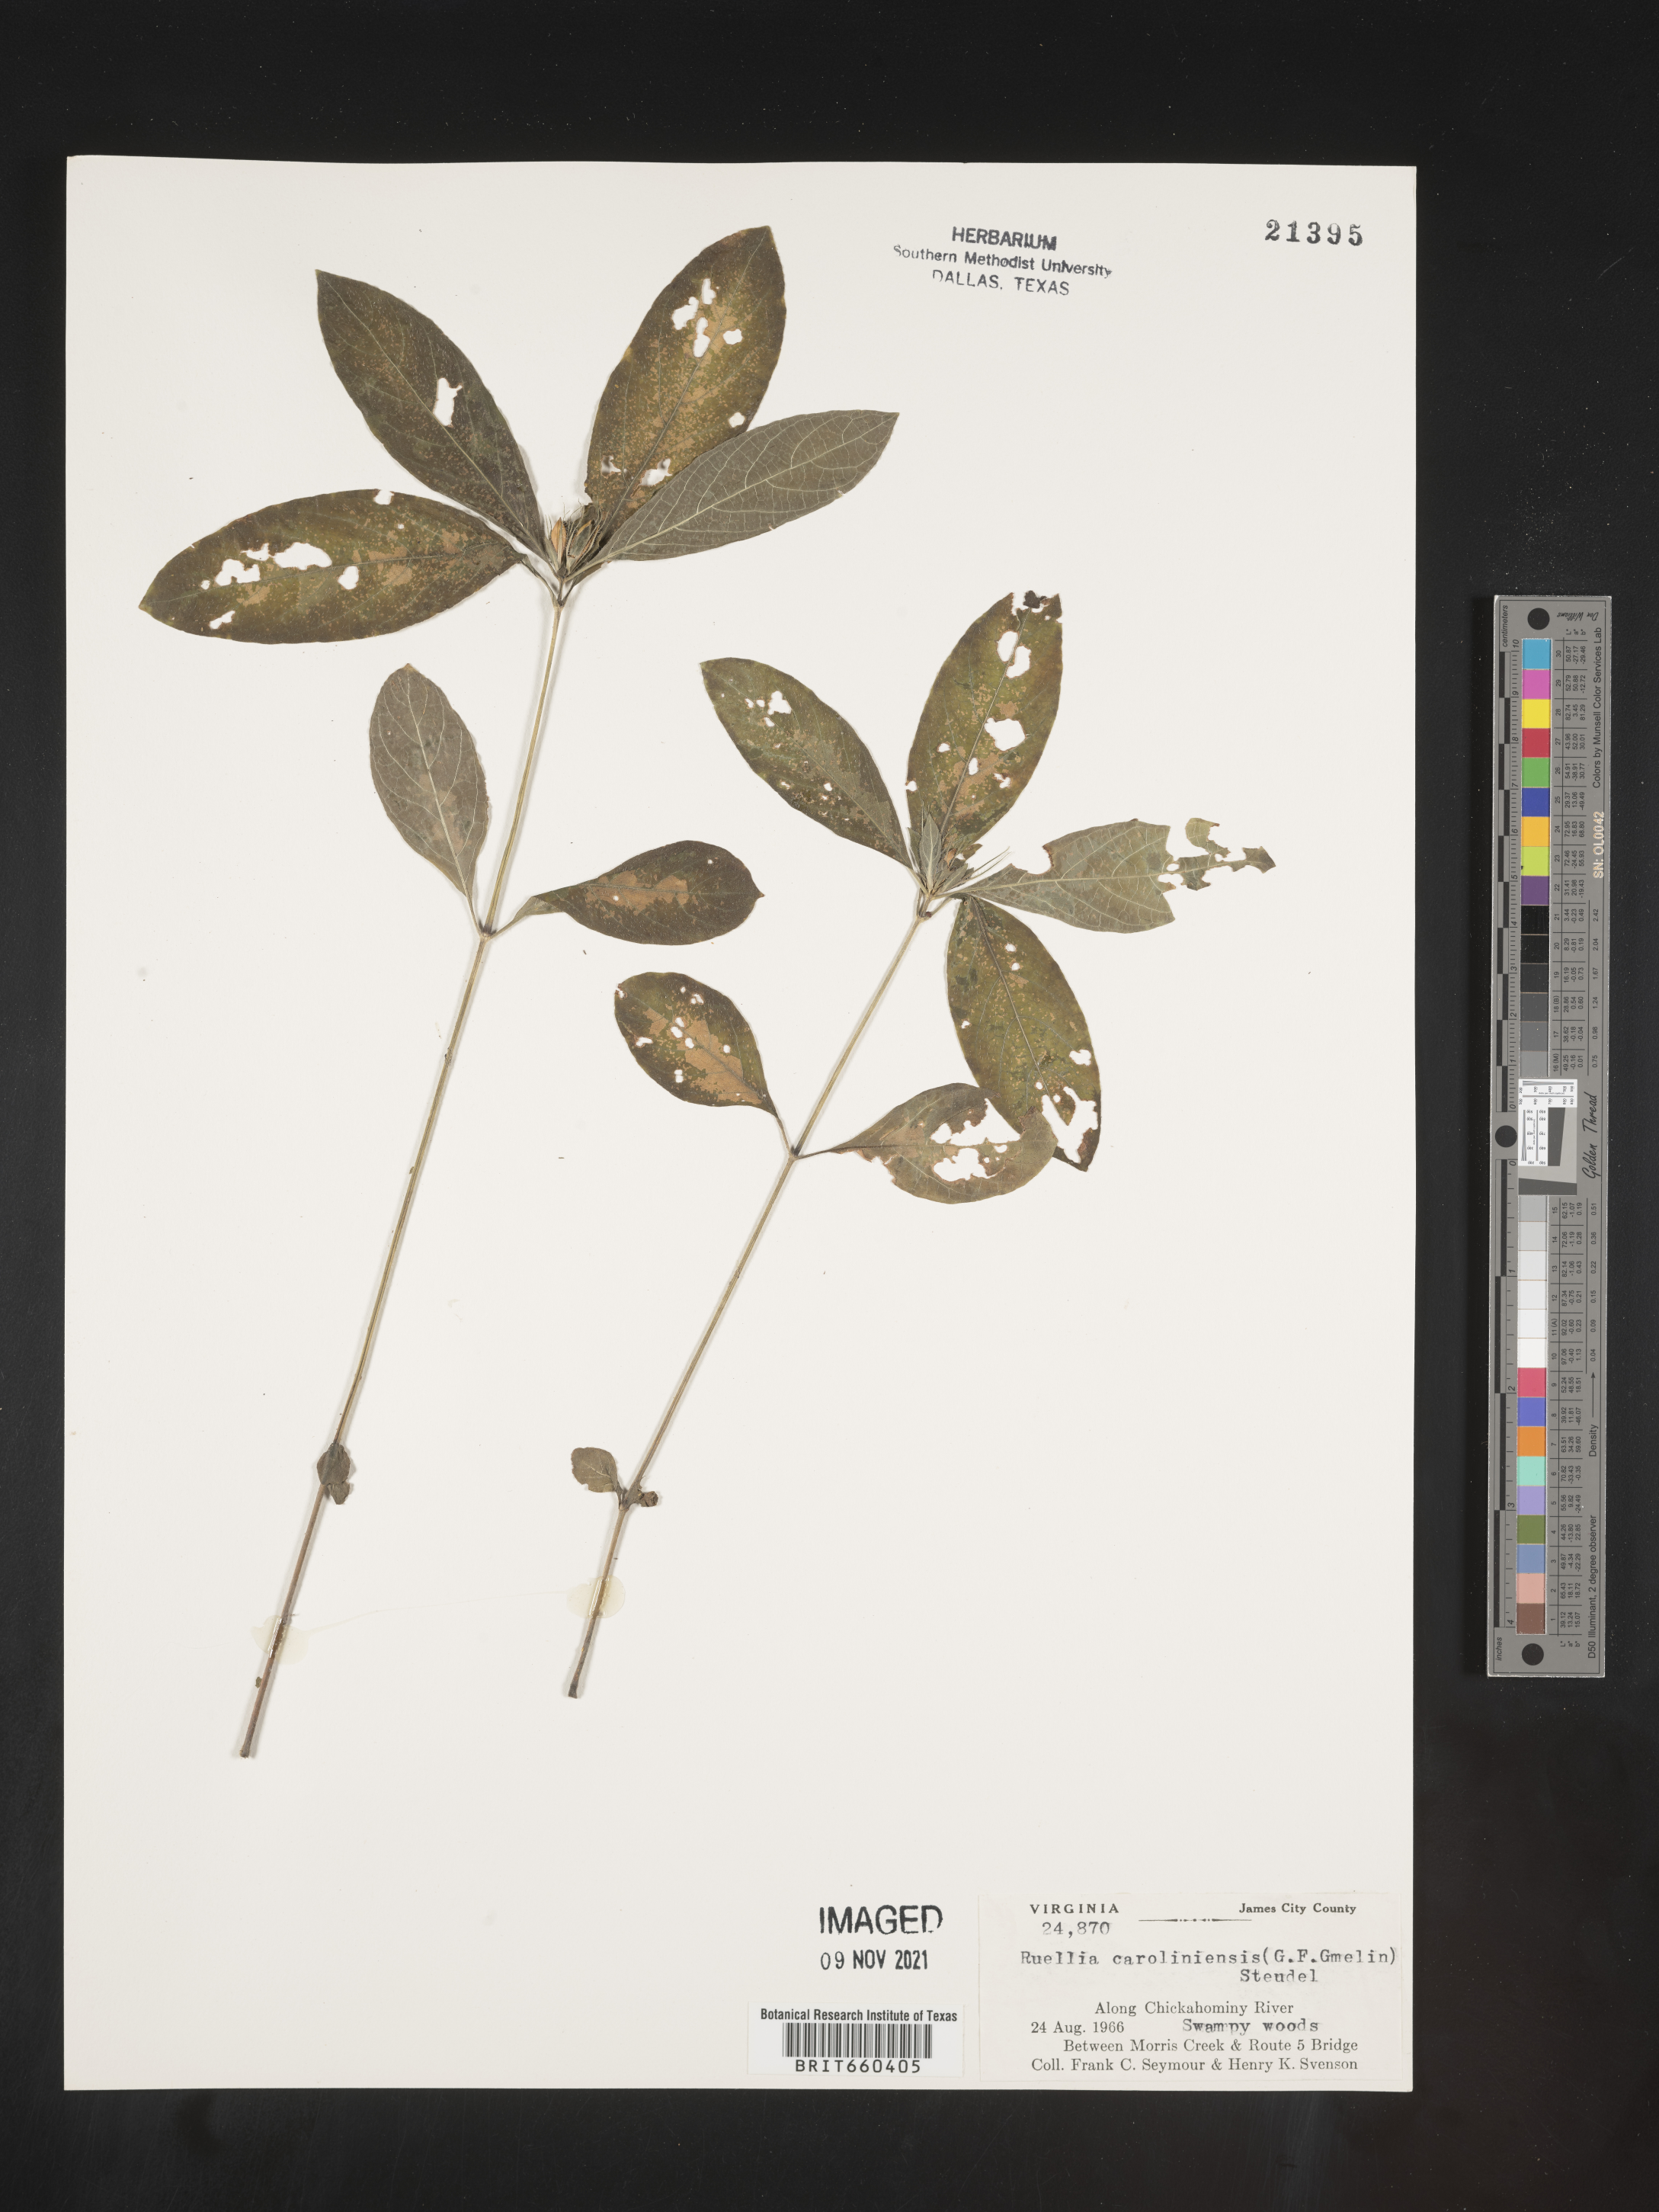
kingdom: Plantae
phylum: Tracheophyta
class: Magnoliopsida
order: Lamiales
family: Acanthaceae
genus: Ruellia
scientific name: Ruellia caroliniensis
